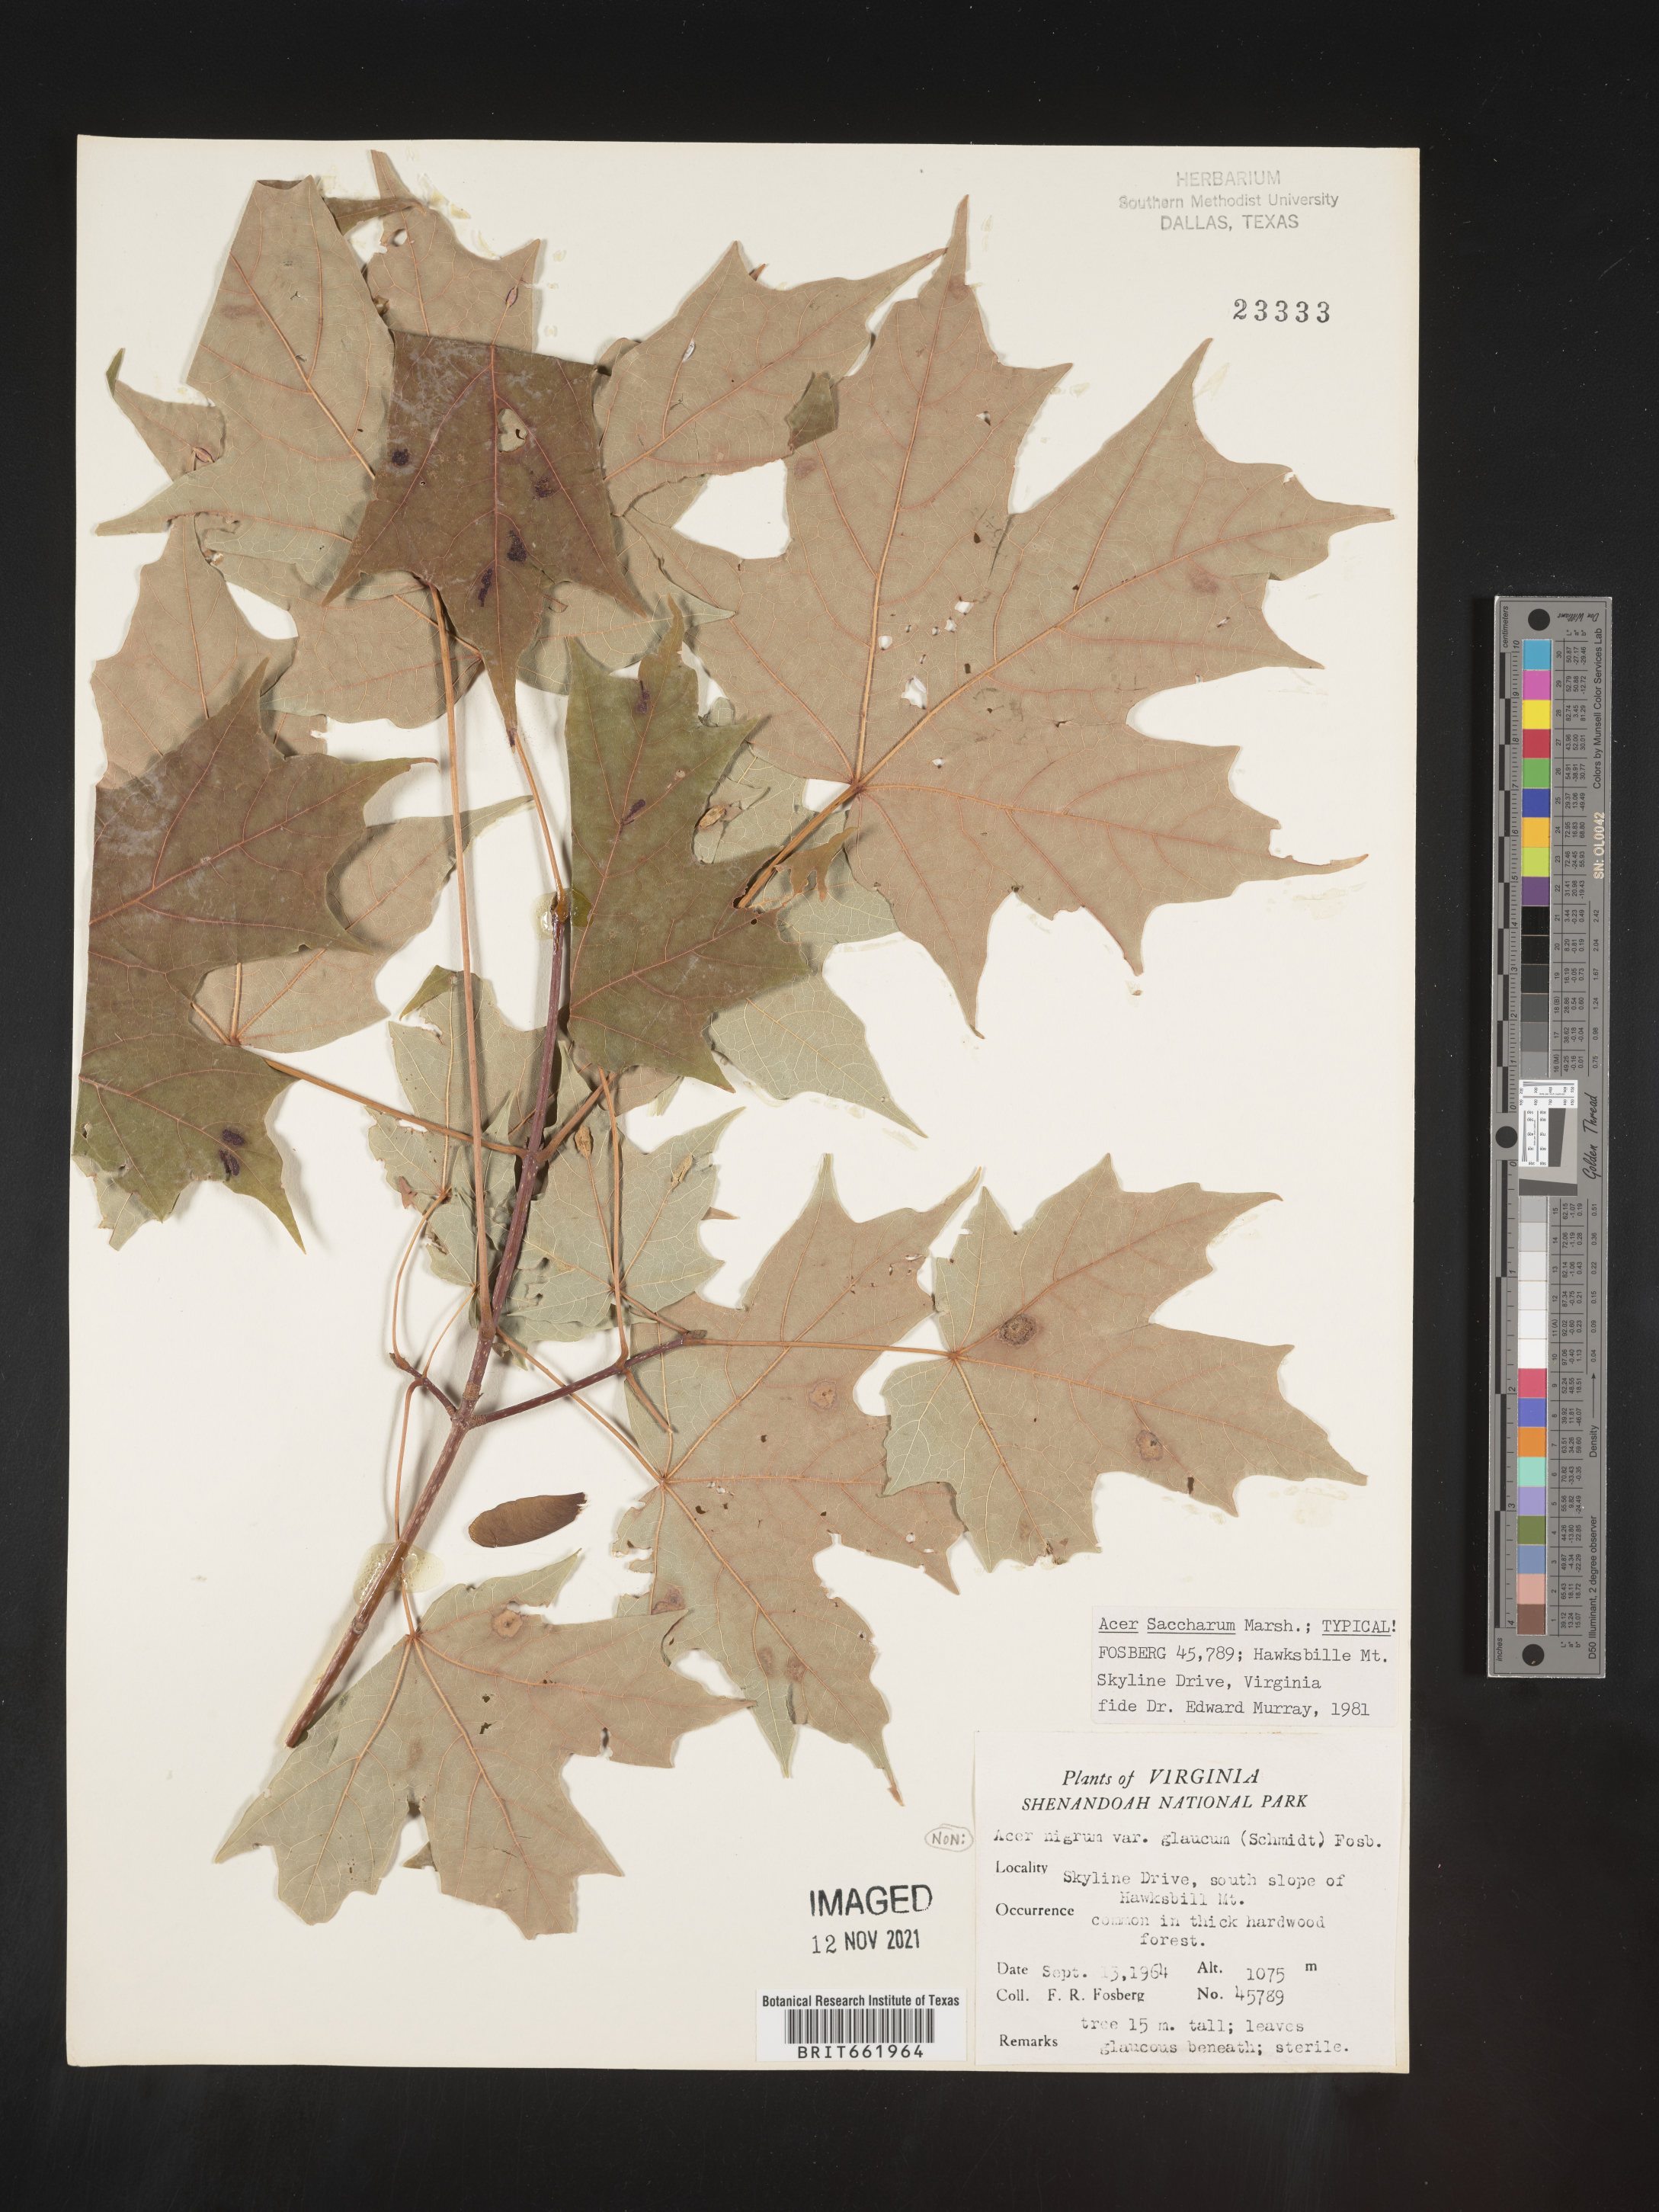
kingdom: Plantae
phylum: Tracheophyta
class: Magnoliopsida
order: Sapindales
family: Sapindaceae
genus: Acer
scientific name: Acer saccharum
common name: Sugar maple
